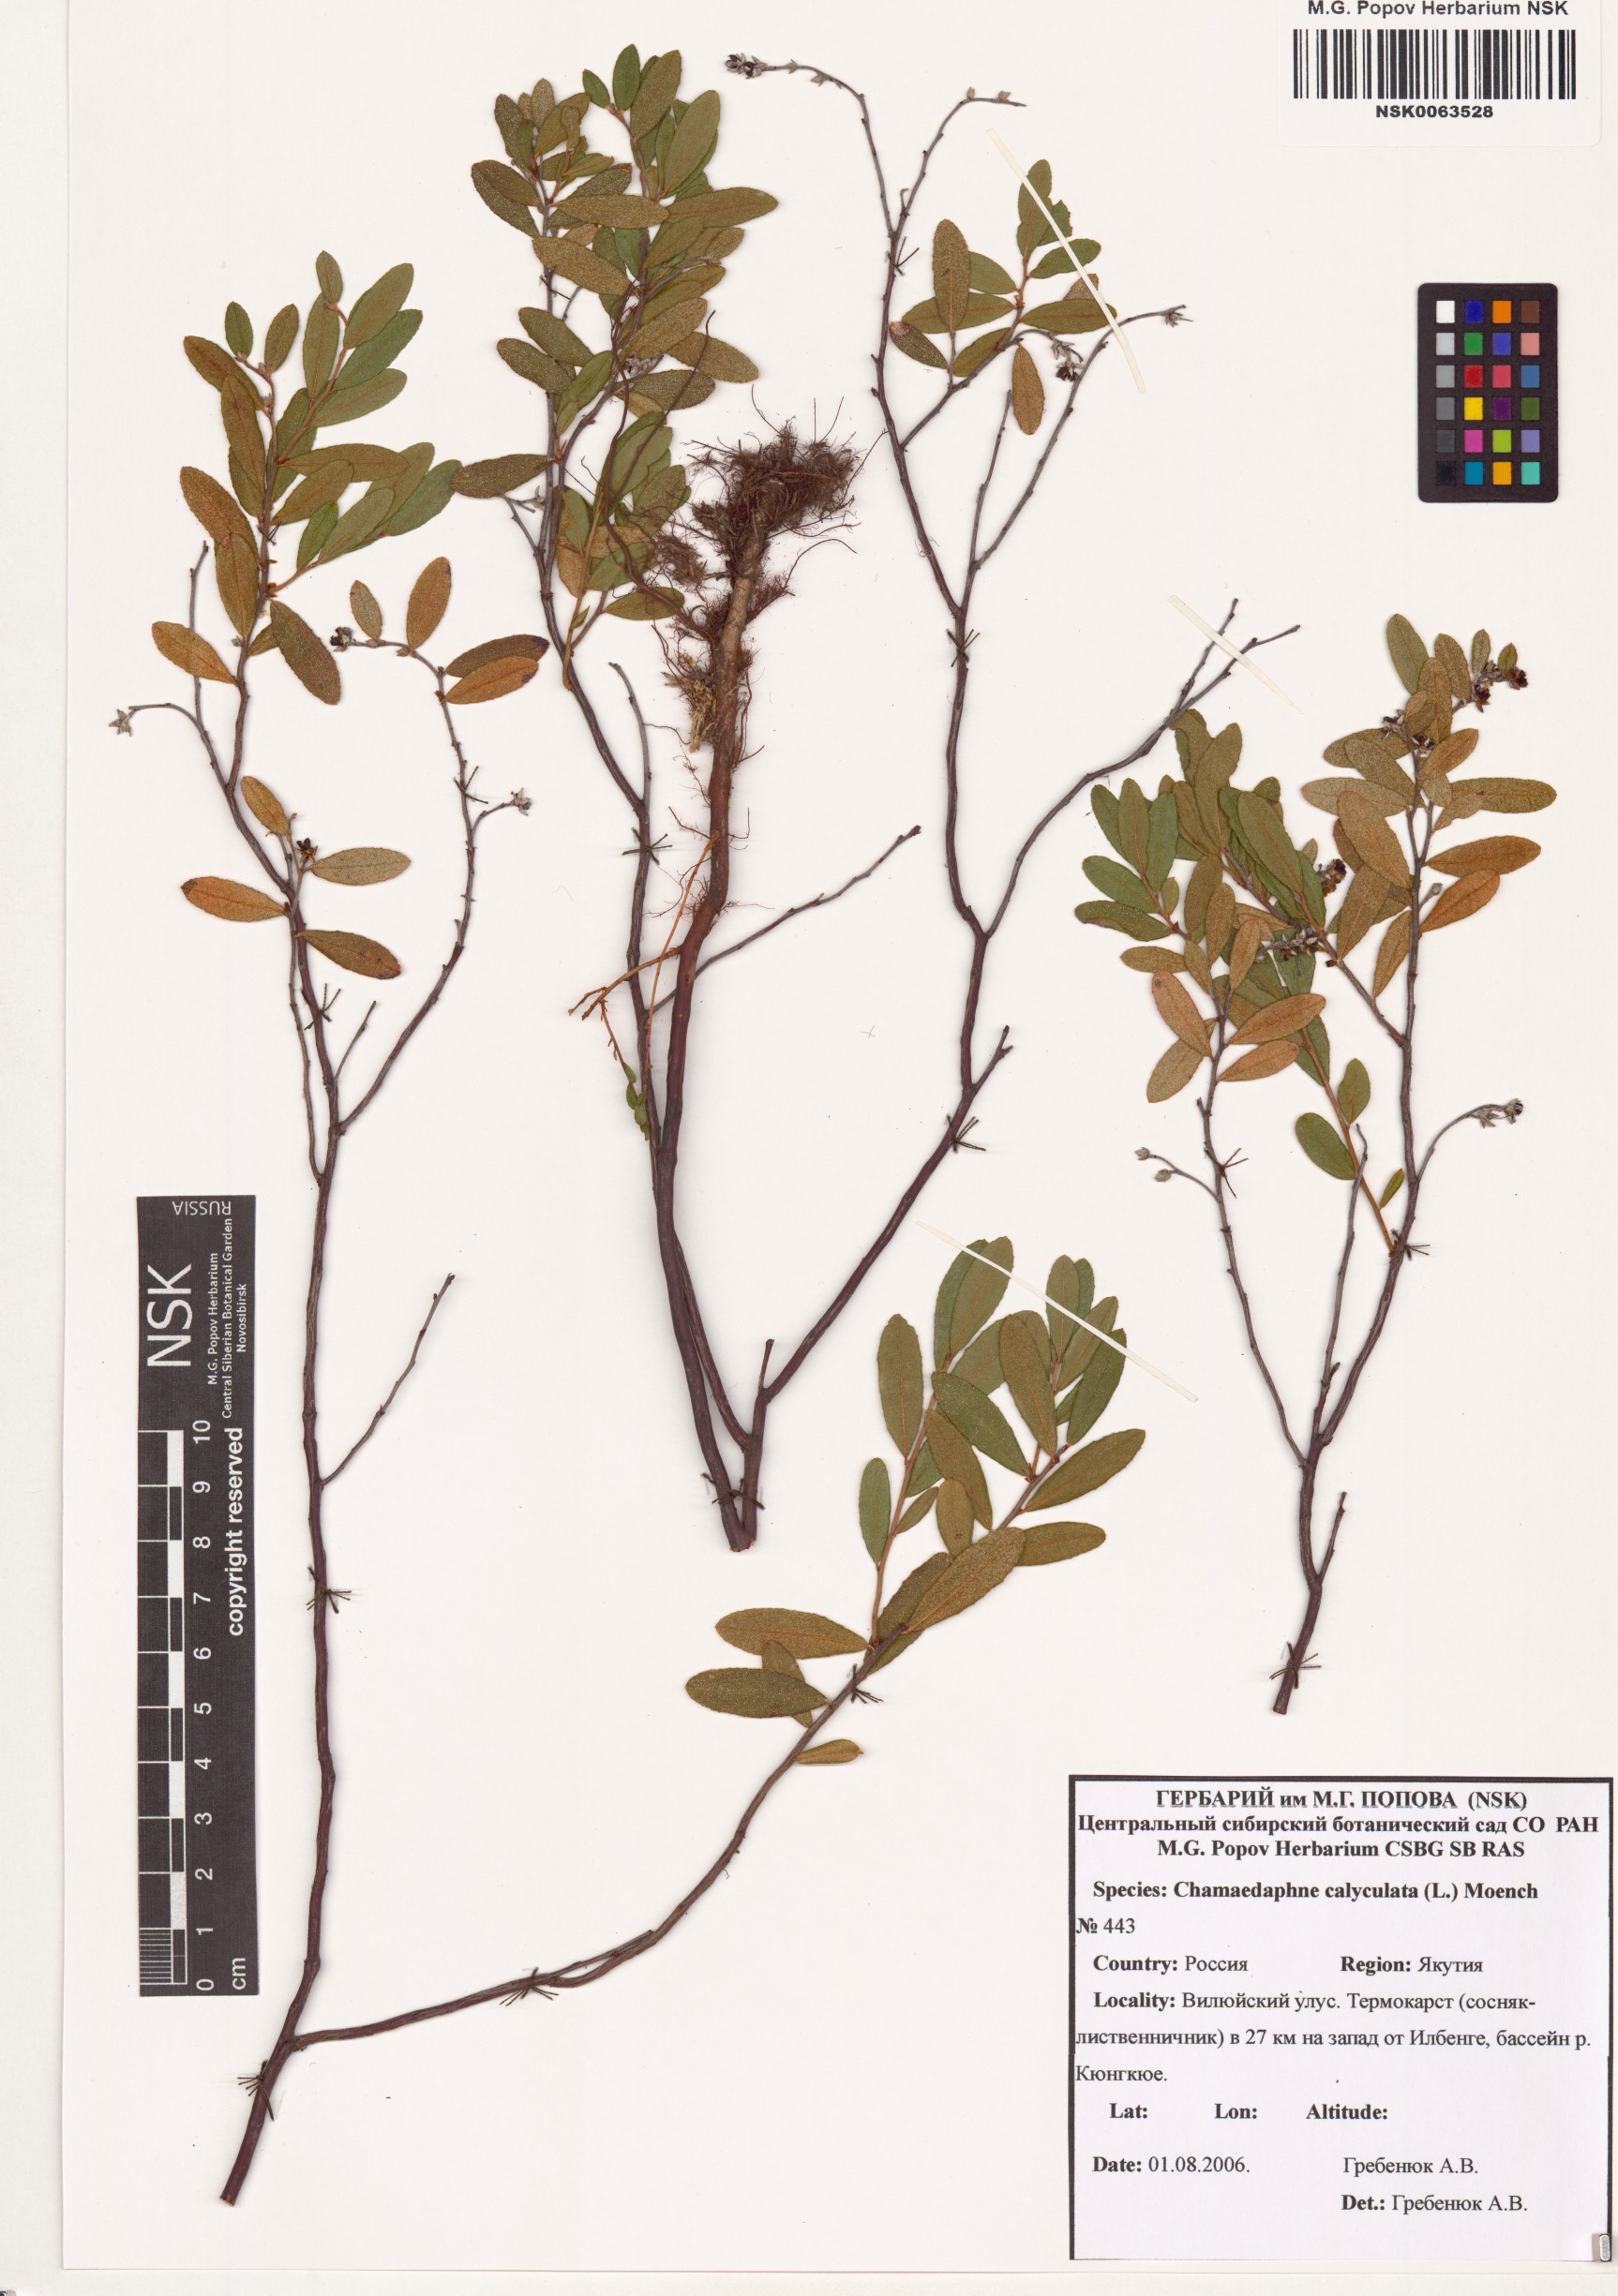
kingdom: Plantae
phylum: Tracheophyta
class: Magnoliopsida
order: Ericales
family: Ericaceae
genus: Chamaedaphne
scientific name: Chamaedaphne calyculata
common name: Leatherleaf
